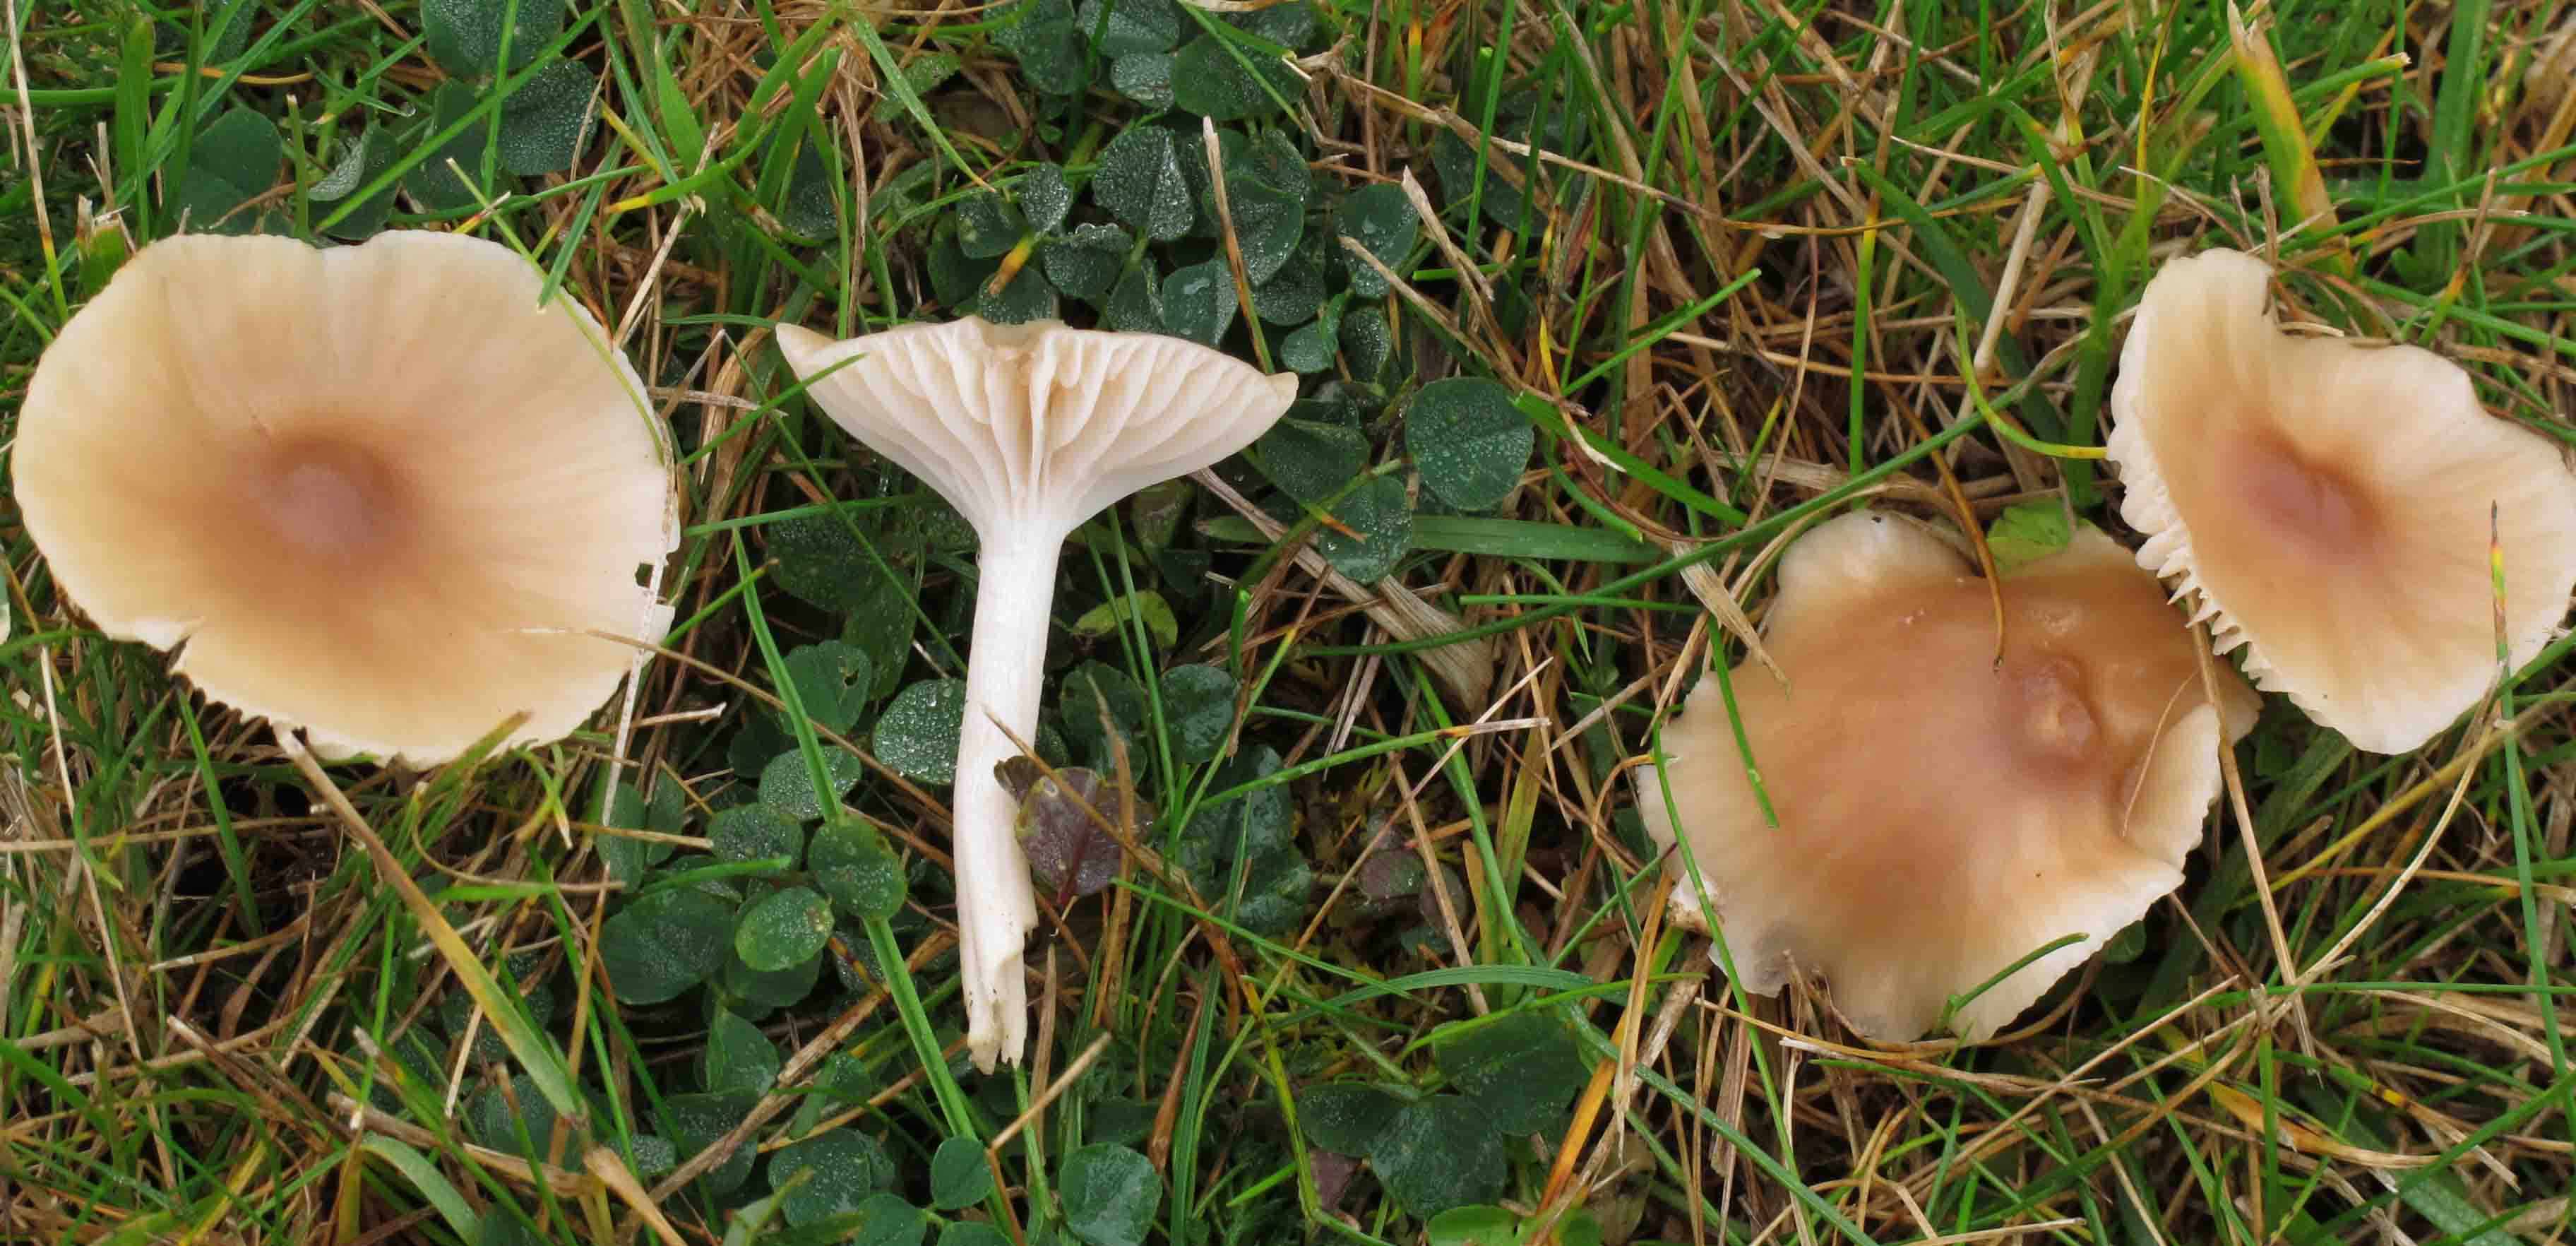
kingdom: Fungi
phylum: Basidiomycota
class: Agaricomycetes
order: Agaricales
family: Hygrophoraceae
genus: Cuphophyllus
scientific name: Cuphophyllus colemannianus
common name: rødbrun vokshat
